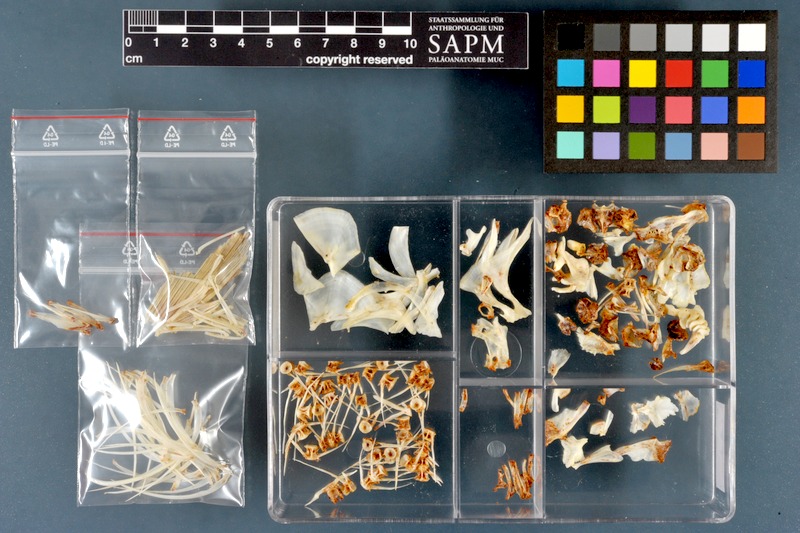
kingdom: Animalia
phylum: Chordata
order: Cypriniformes
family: Cyprinidae
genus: Rutilus
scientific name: Rutilus pigus
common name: Danube roach
